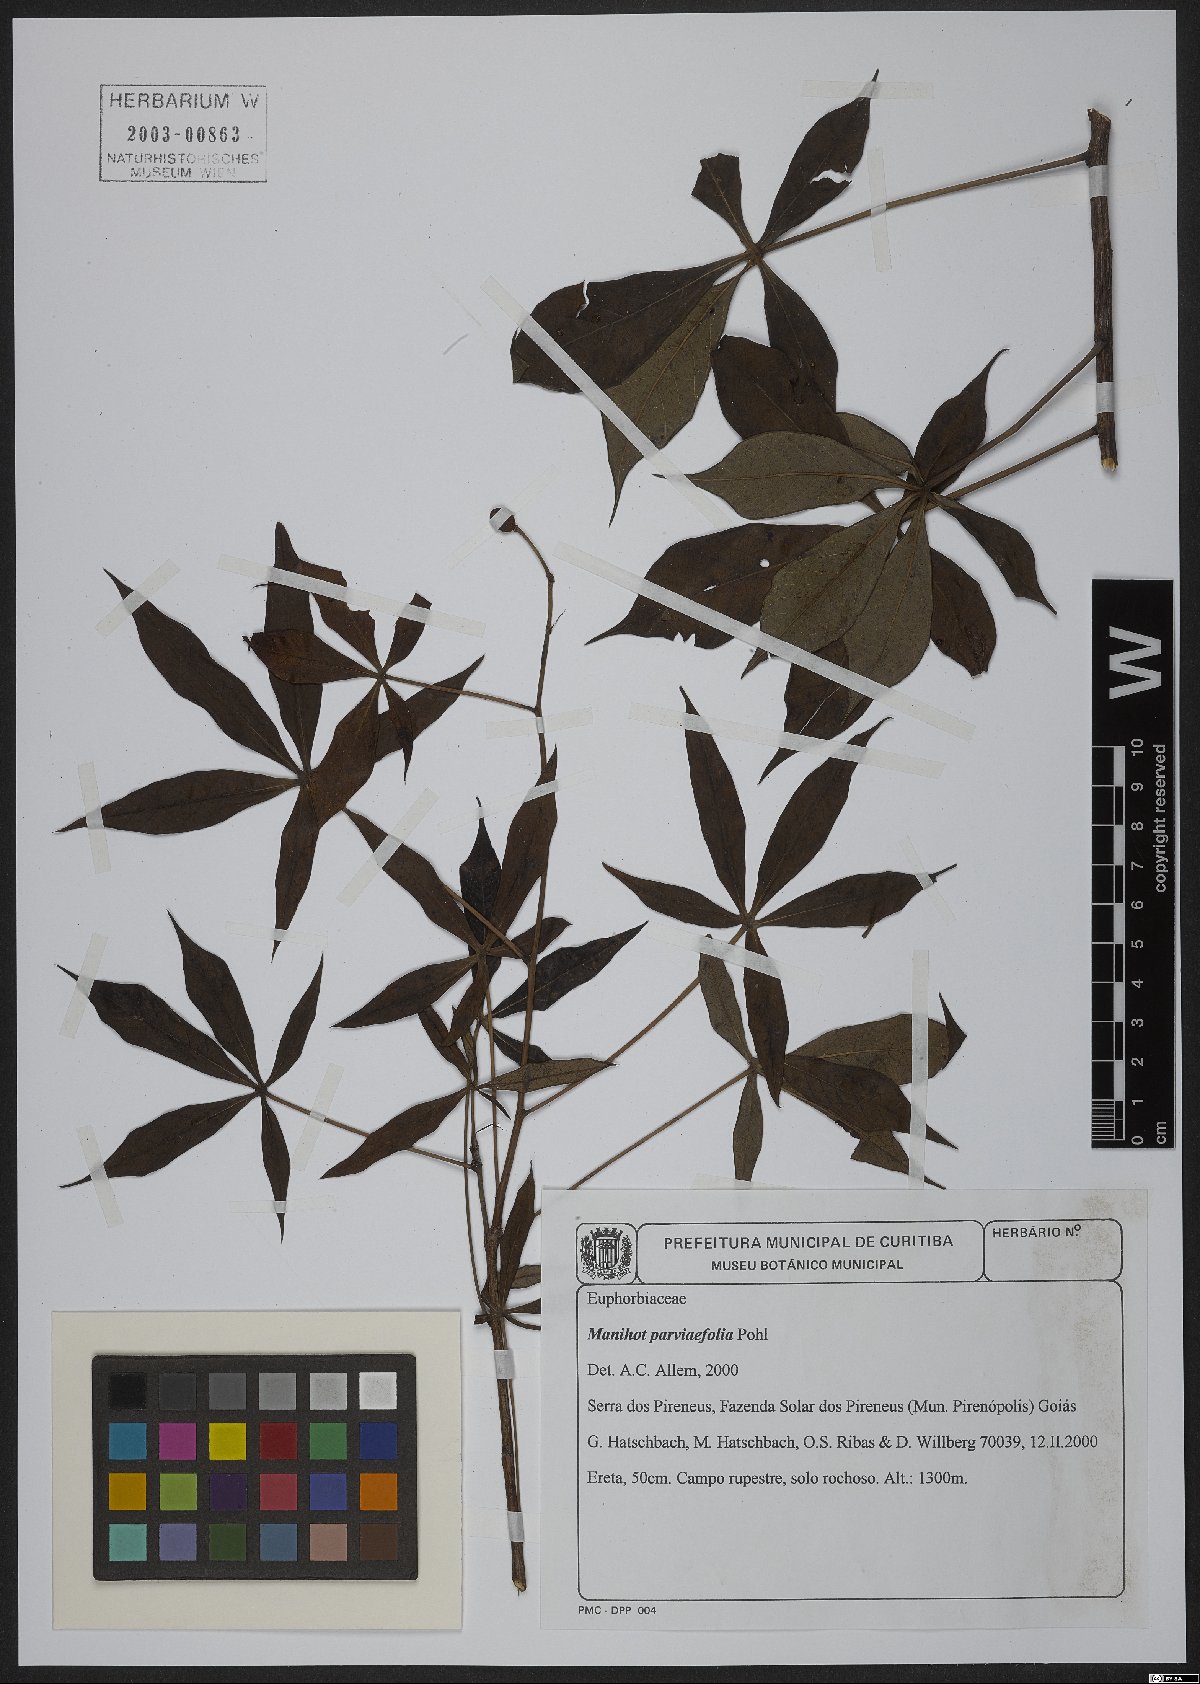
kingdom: Plantae
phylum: Tracheophyta
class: Magnoliopsida
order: Malpighiales
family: Euphorbiaceae
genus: Manihot
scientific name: Manihot paviifolia
